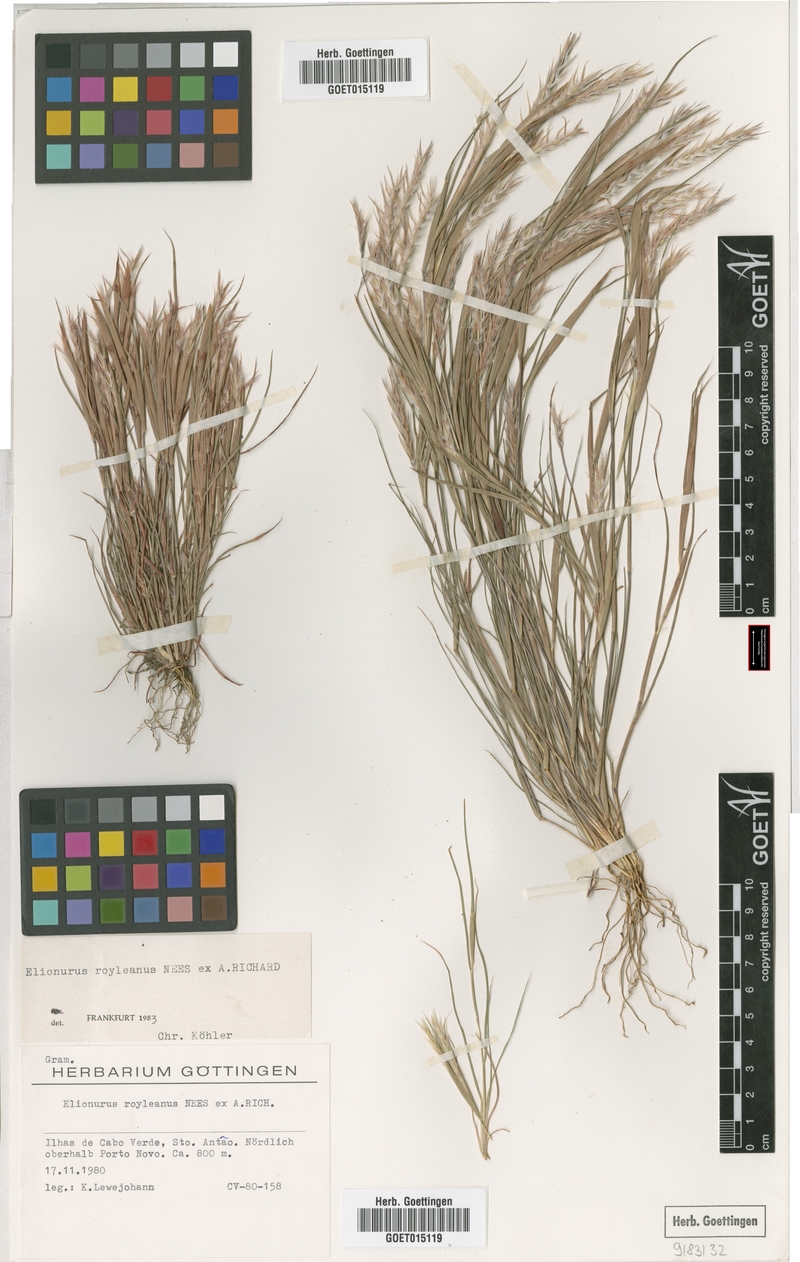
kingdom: Plantae
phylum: Tracheophyta
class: Liliopsida
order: Poales
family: Poaceae
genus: Elionurus
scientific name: Elionurus royleanus
